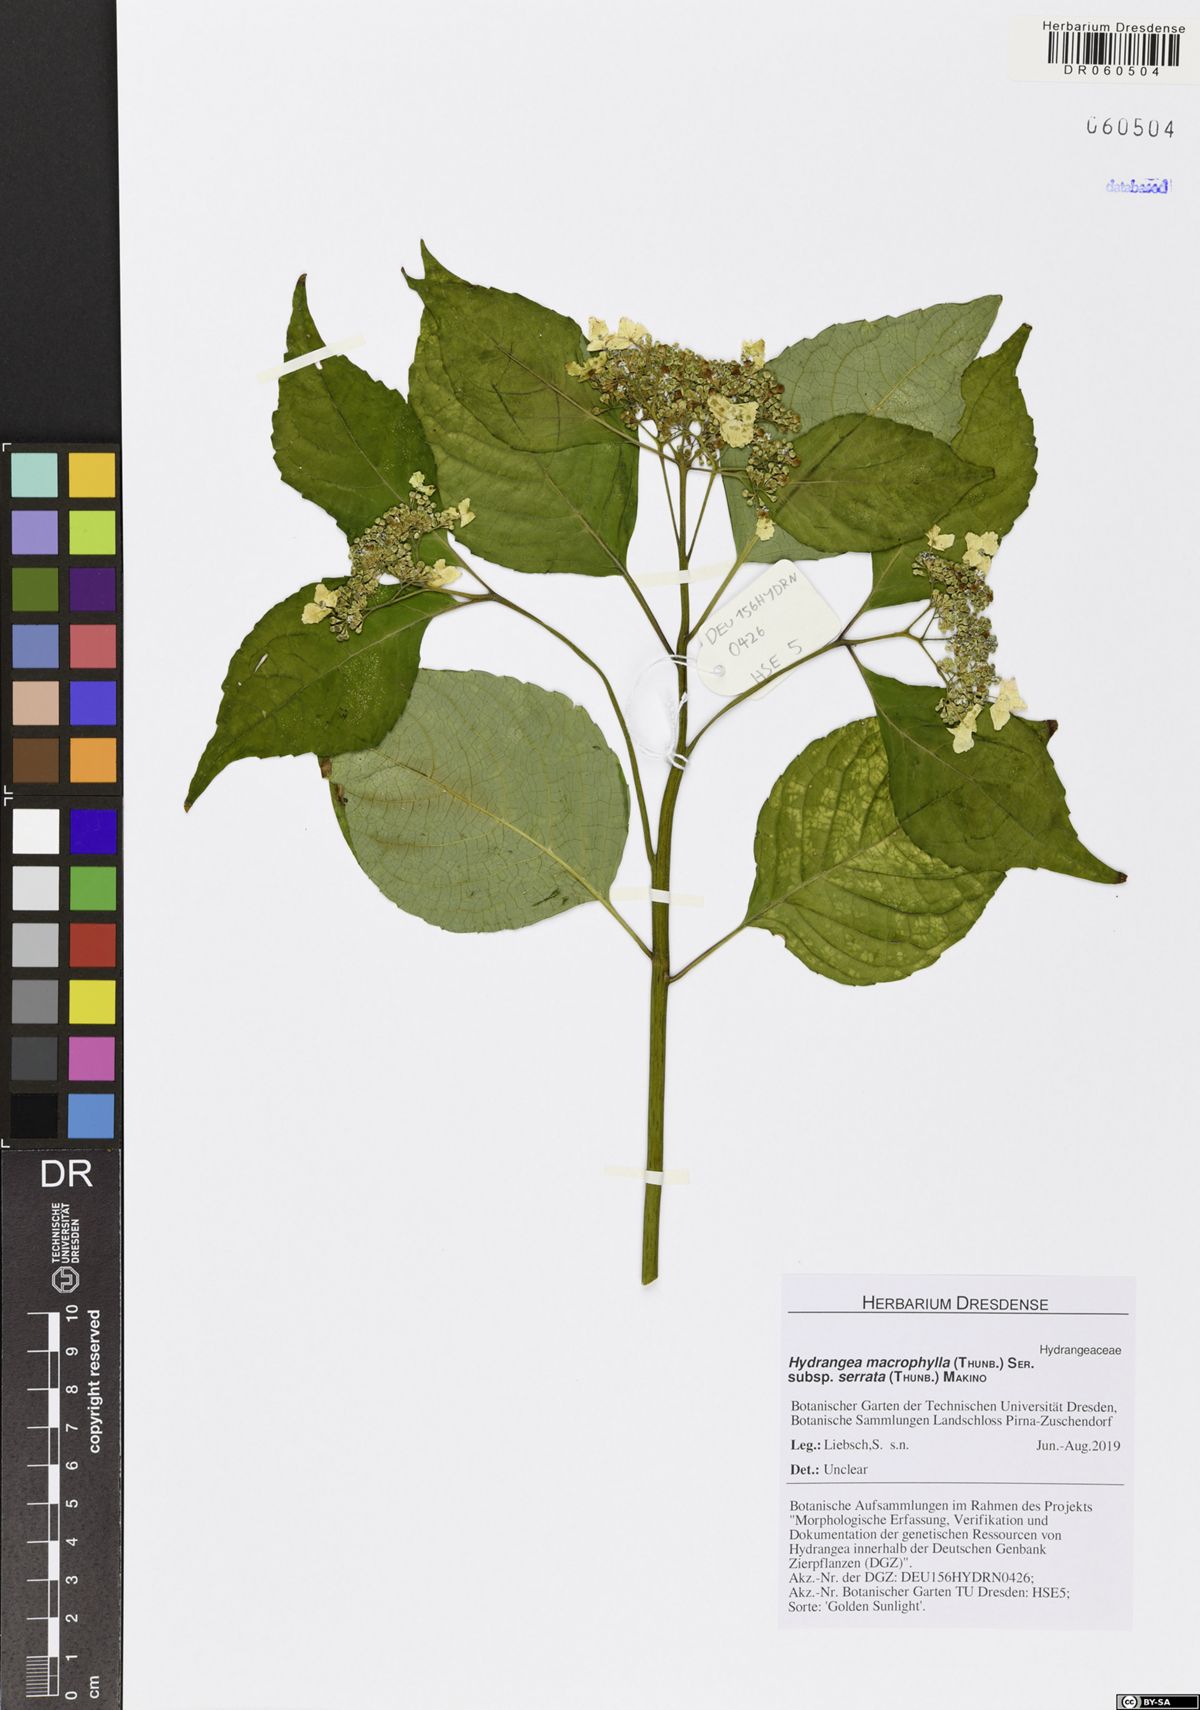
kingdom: Plantae
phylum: Tracheophyta
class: Magnoliopsida
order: Cornales
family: Hydrangeaceae
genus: Hydrangea
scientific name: Hydrangea serrata
